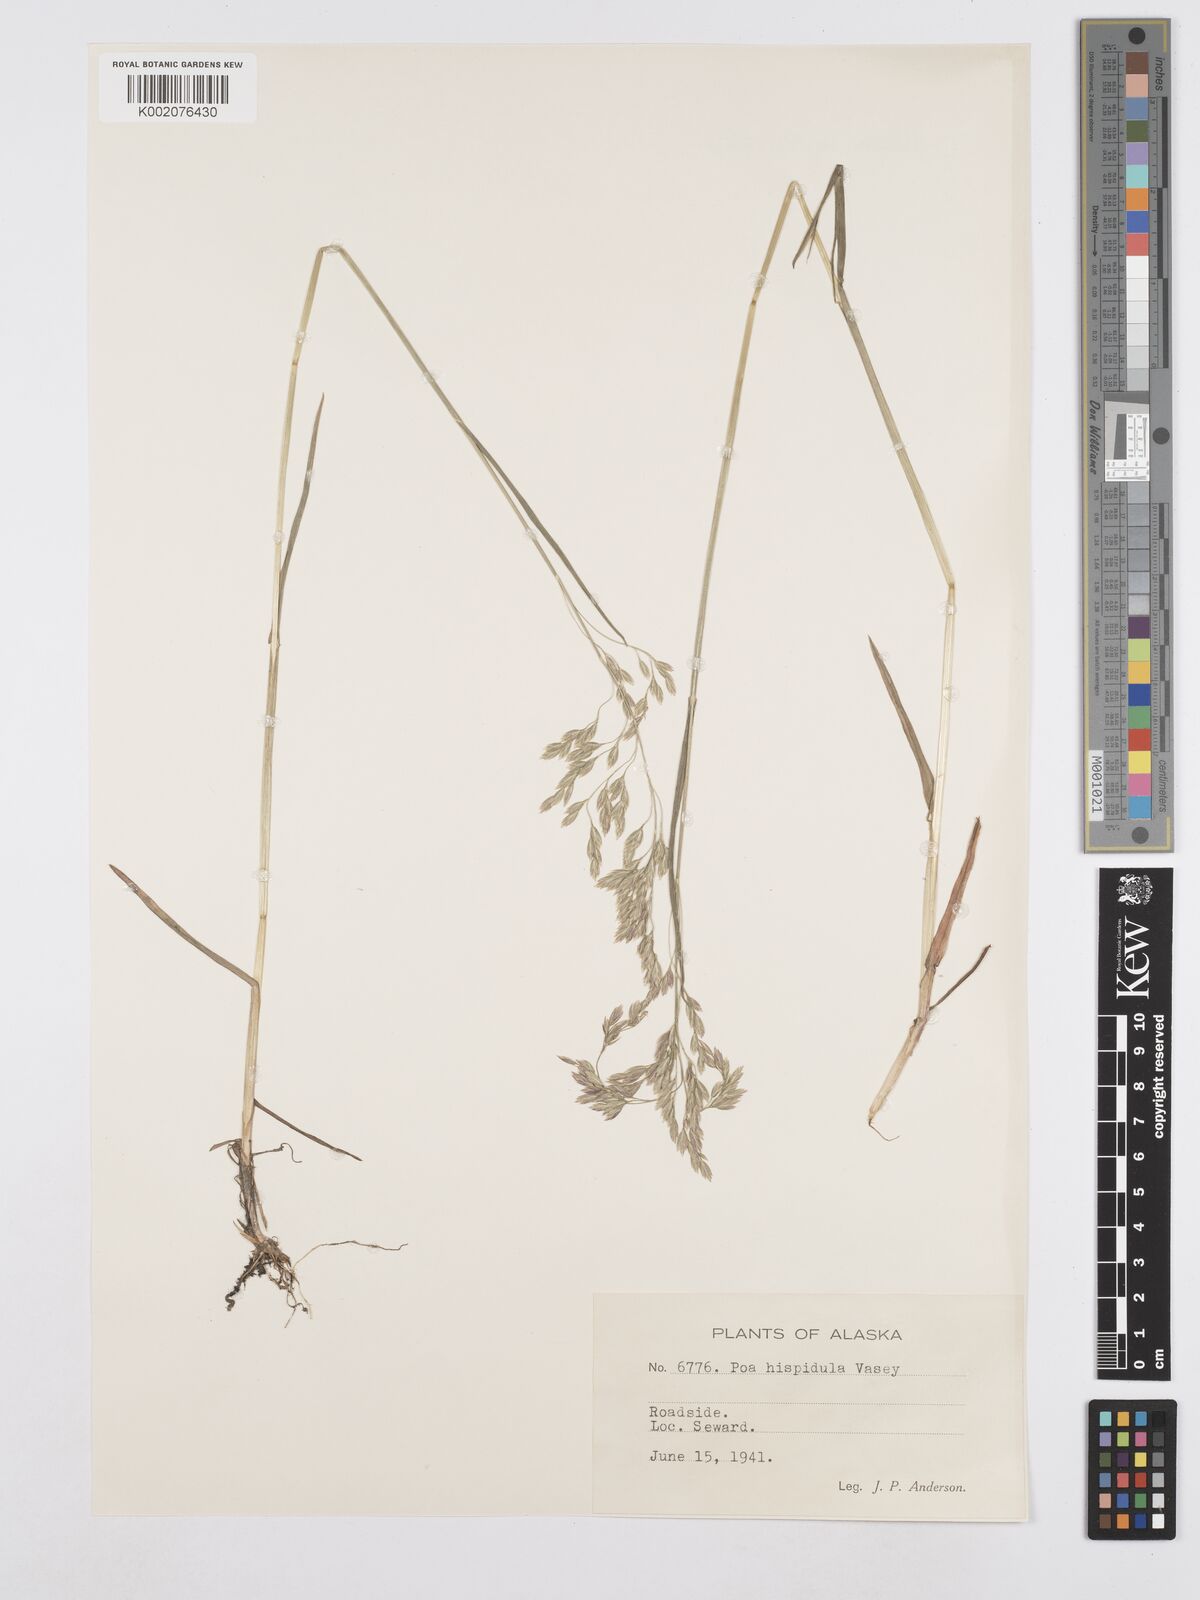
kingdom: Plantae
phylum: Tracheophyta
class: Liliopsida
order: Poales
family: Poaceae
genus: Poa
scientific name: Poa macrocalyx
